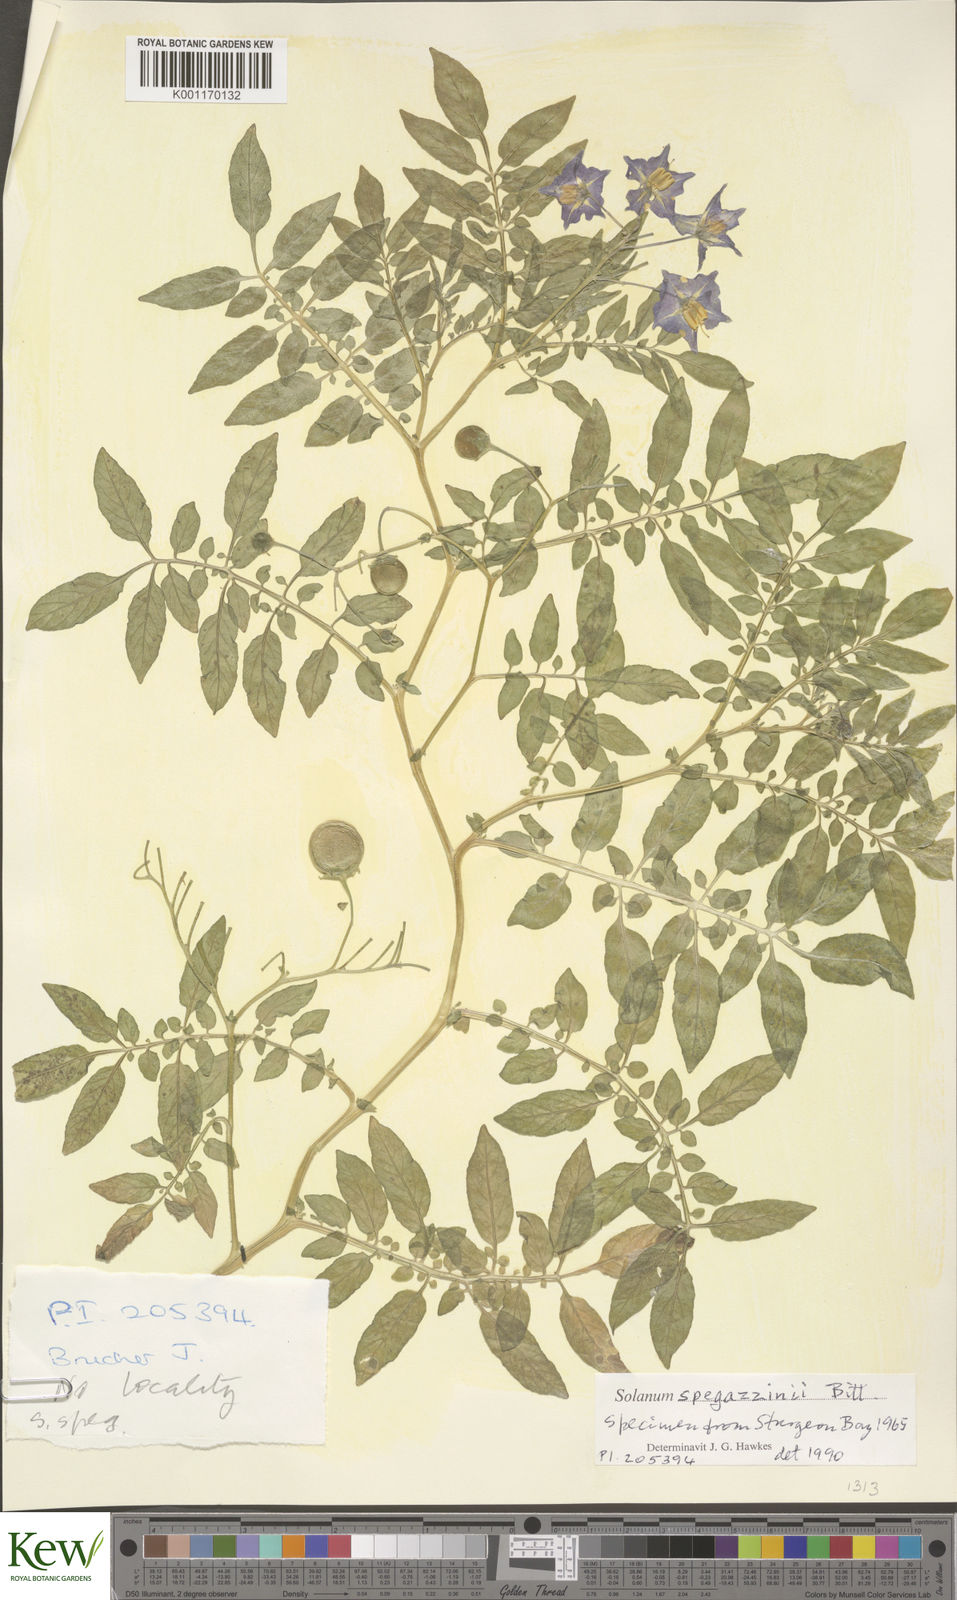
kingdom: Plantae
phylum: Tracheophyta
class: Magnoliopsida
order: Solanales
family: Solanaceae
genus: Solanum
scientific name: Solanum brevicaule
